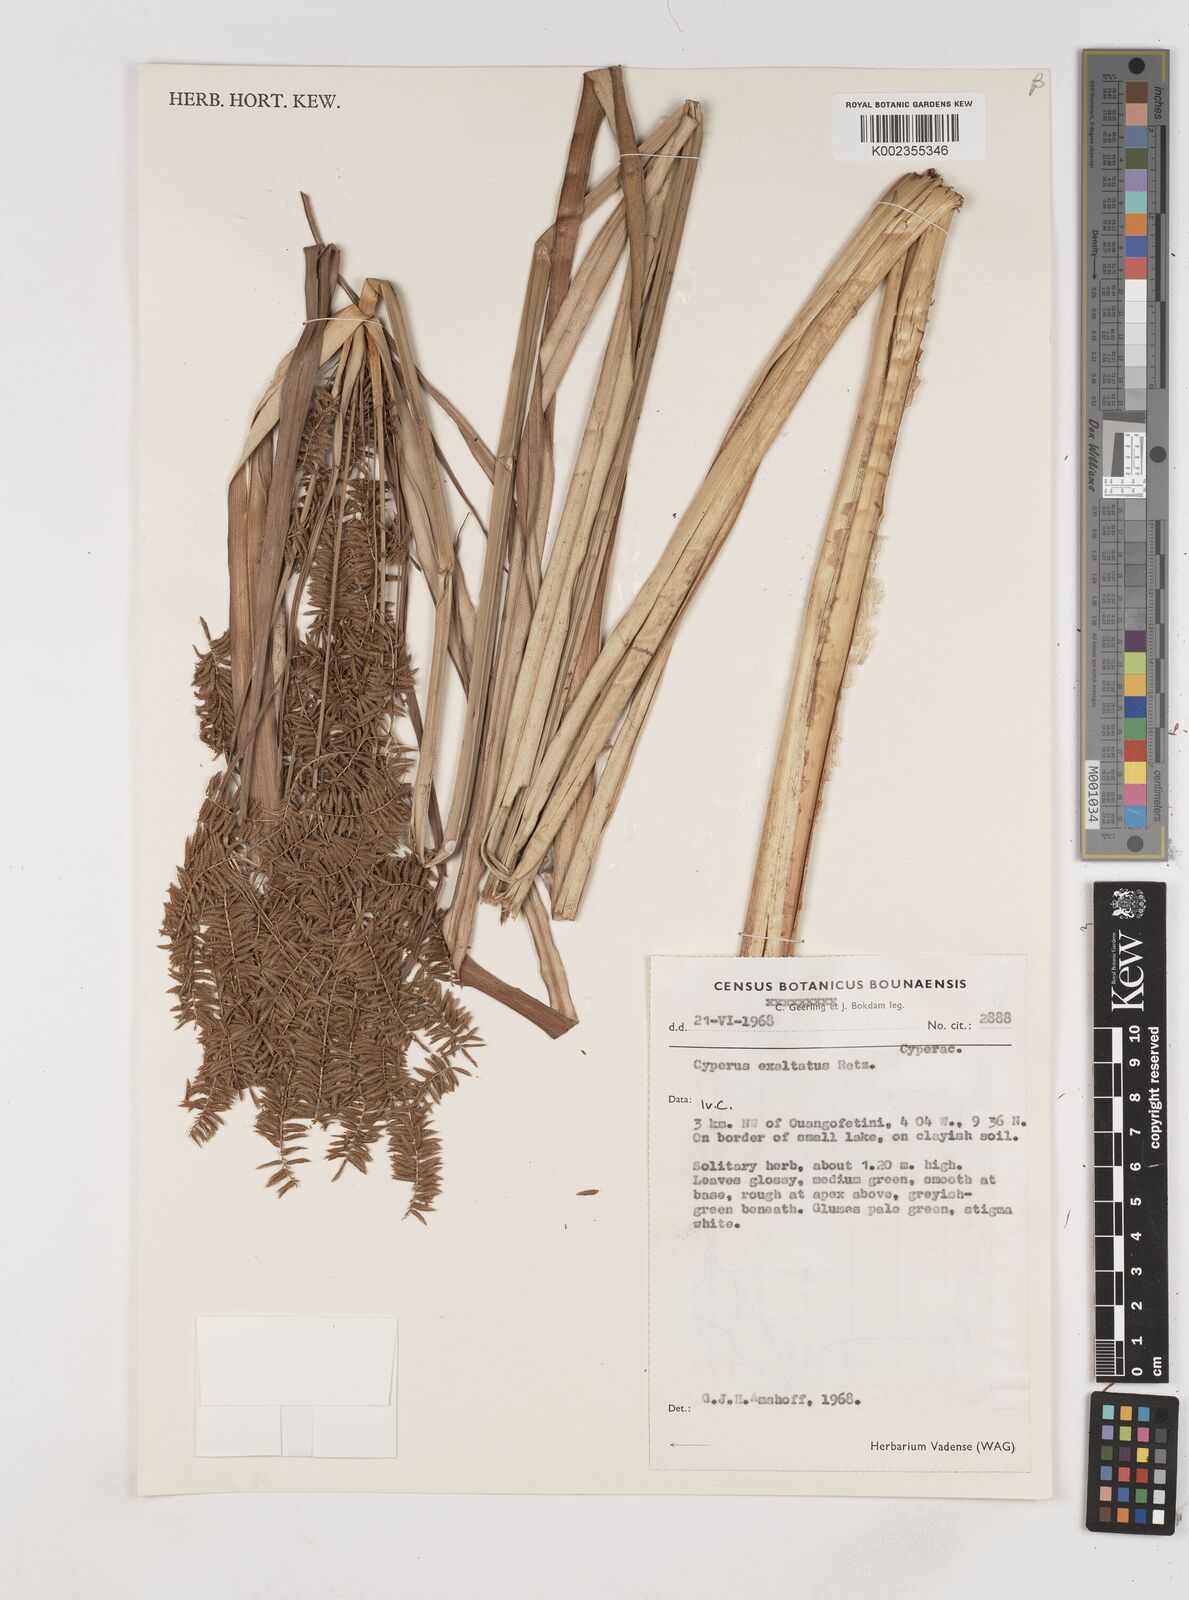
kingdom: Plantae
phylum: Tracheophyta
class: Liliopsida
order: Poales
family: Cyperaceae
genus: Cyperus
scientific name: Cyperus exaltatus
